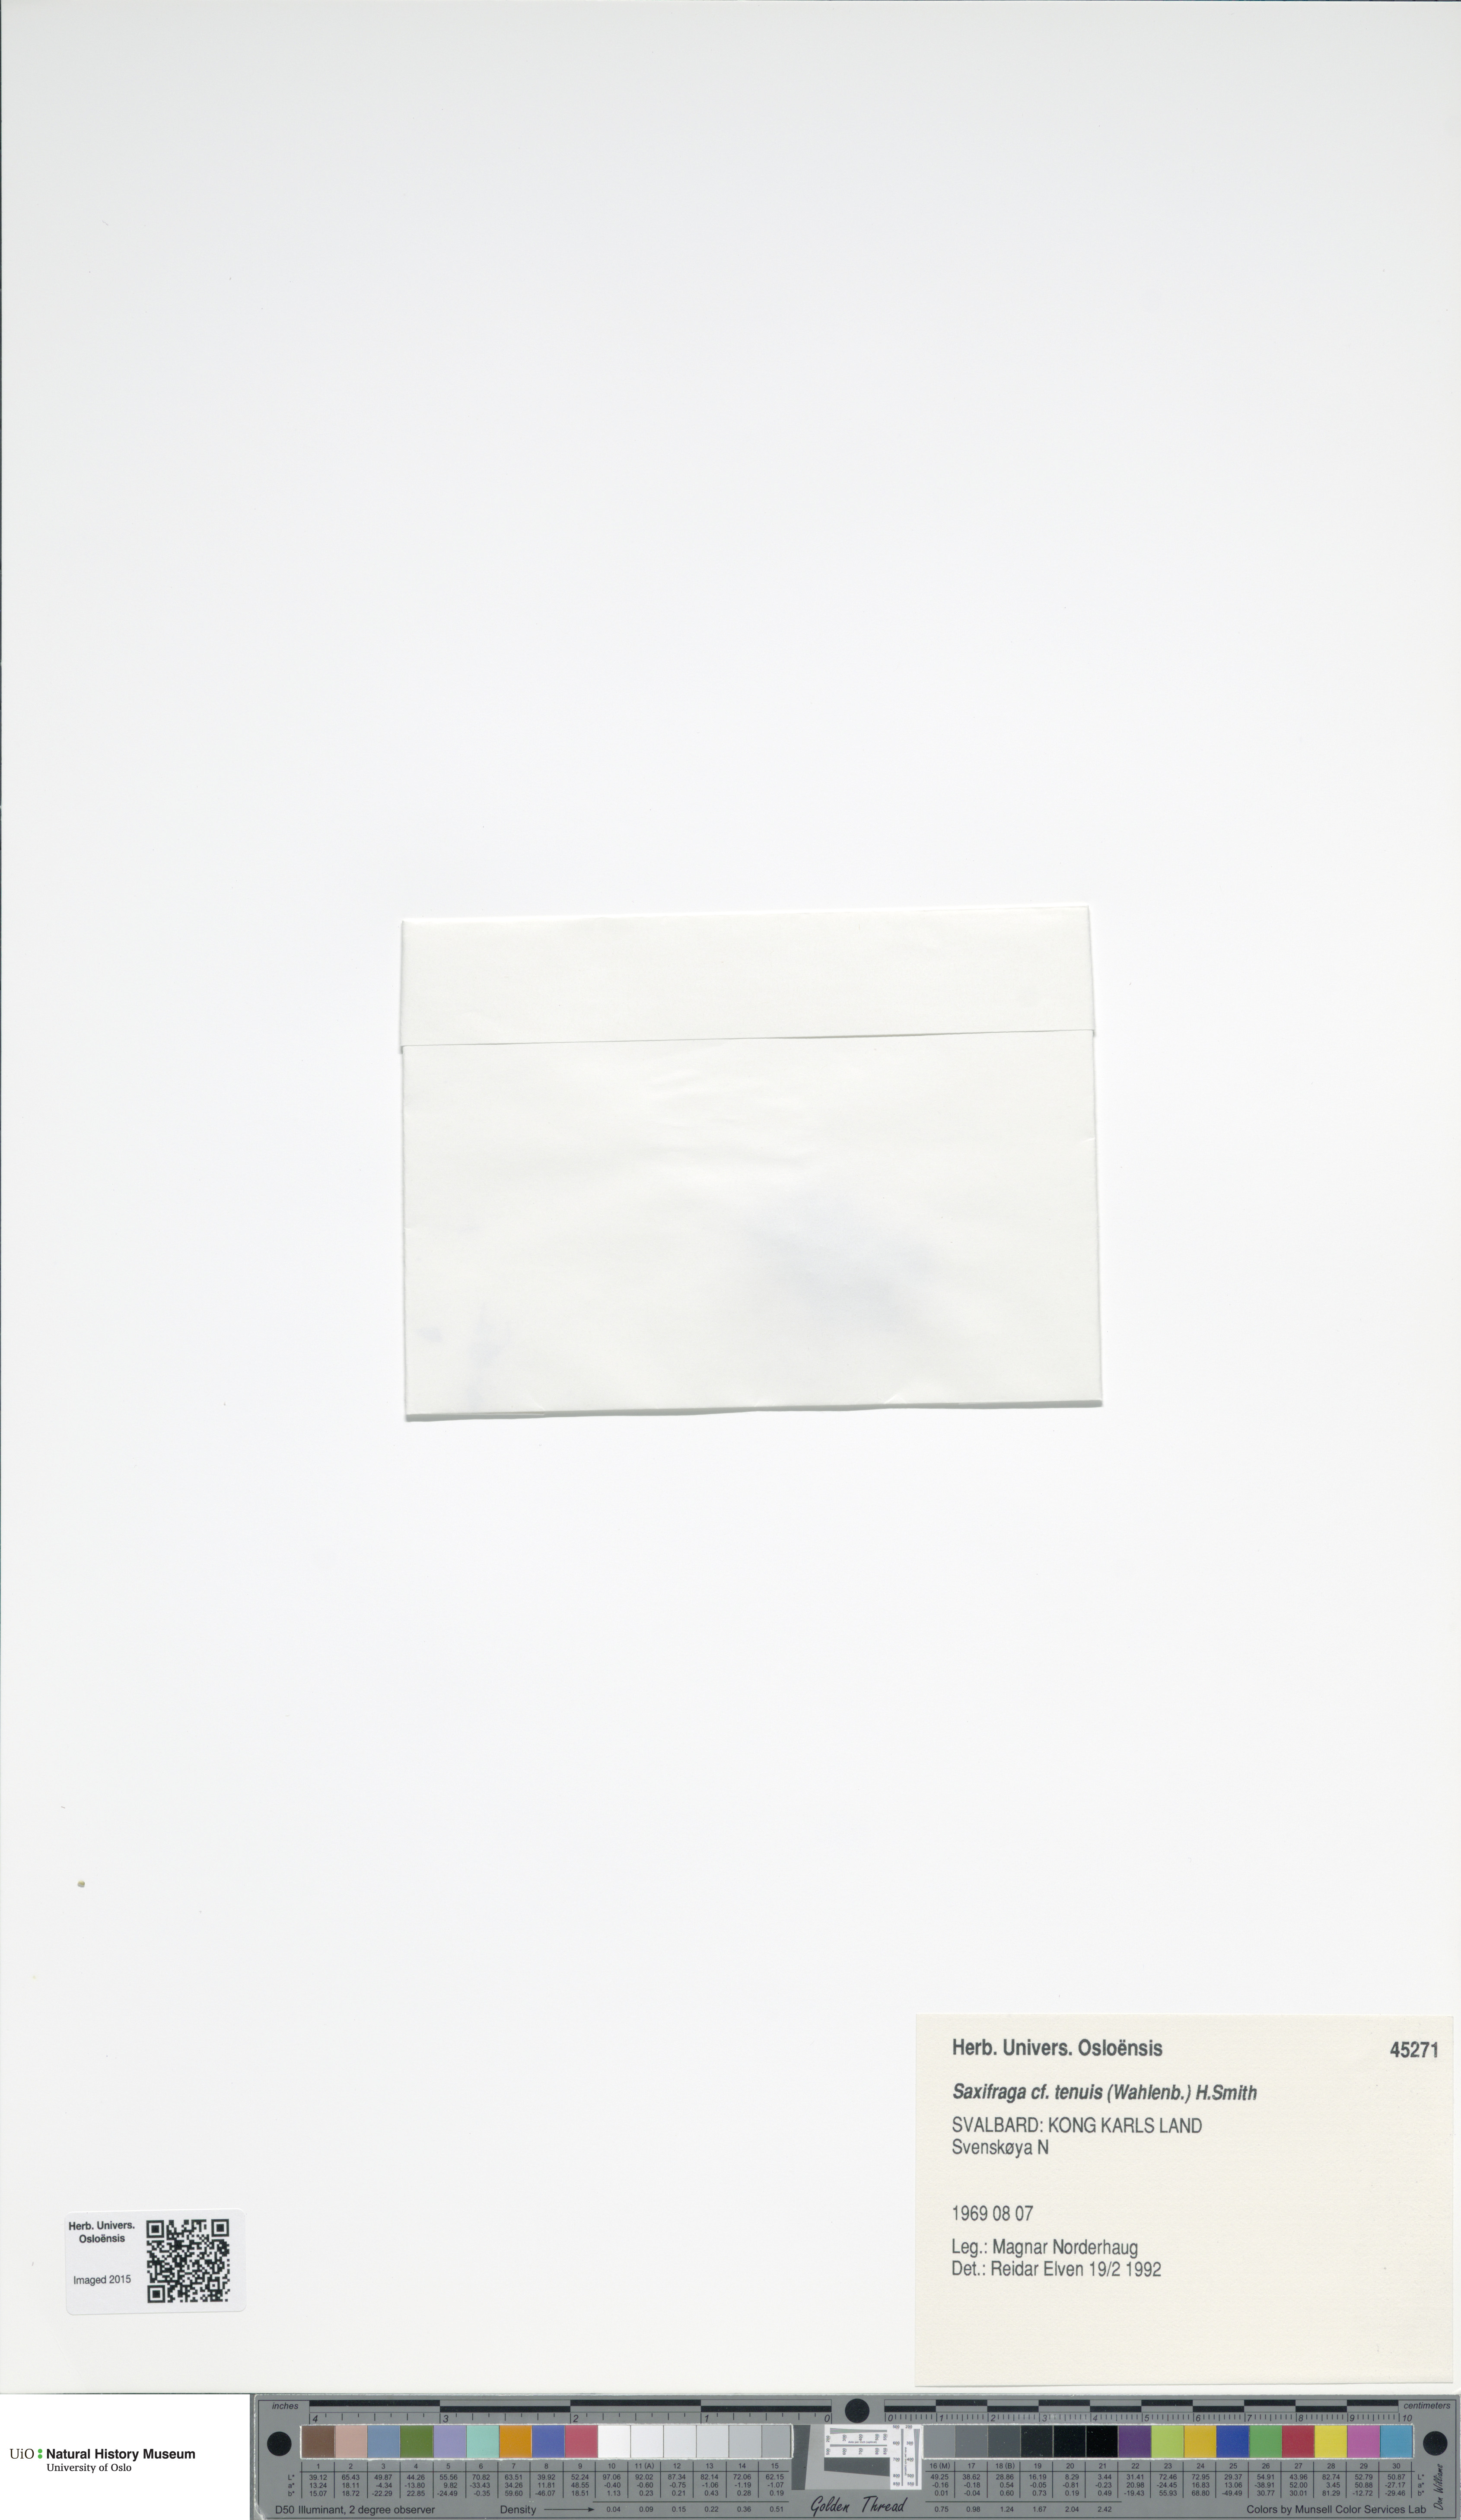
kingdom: Plantae
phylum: Tracheophyta
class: Magnoliopsida
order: Saxifragales
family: Saxifragaceae
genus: Micranthes
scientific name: Micranthes tenuis
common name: Ottertail pass saxifrage
